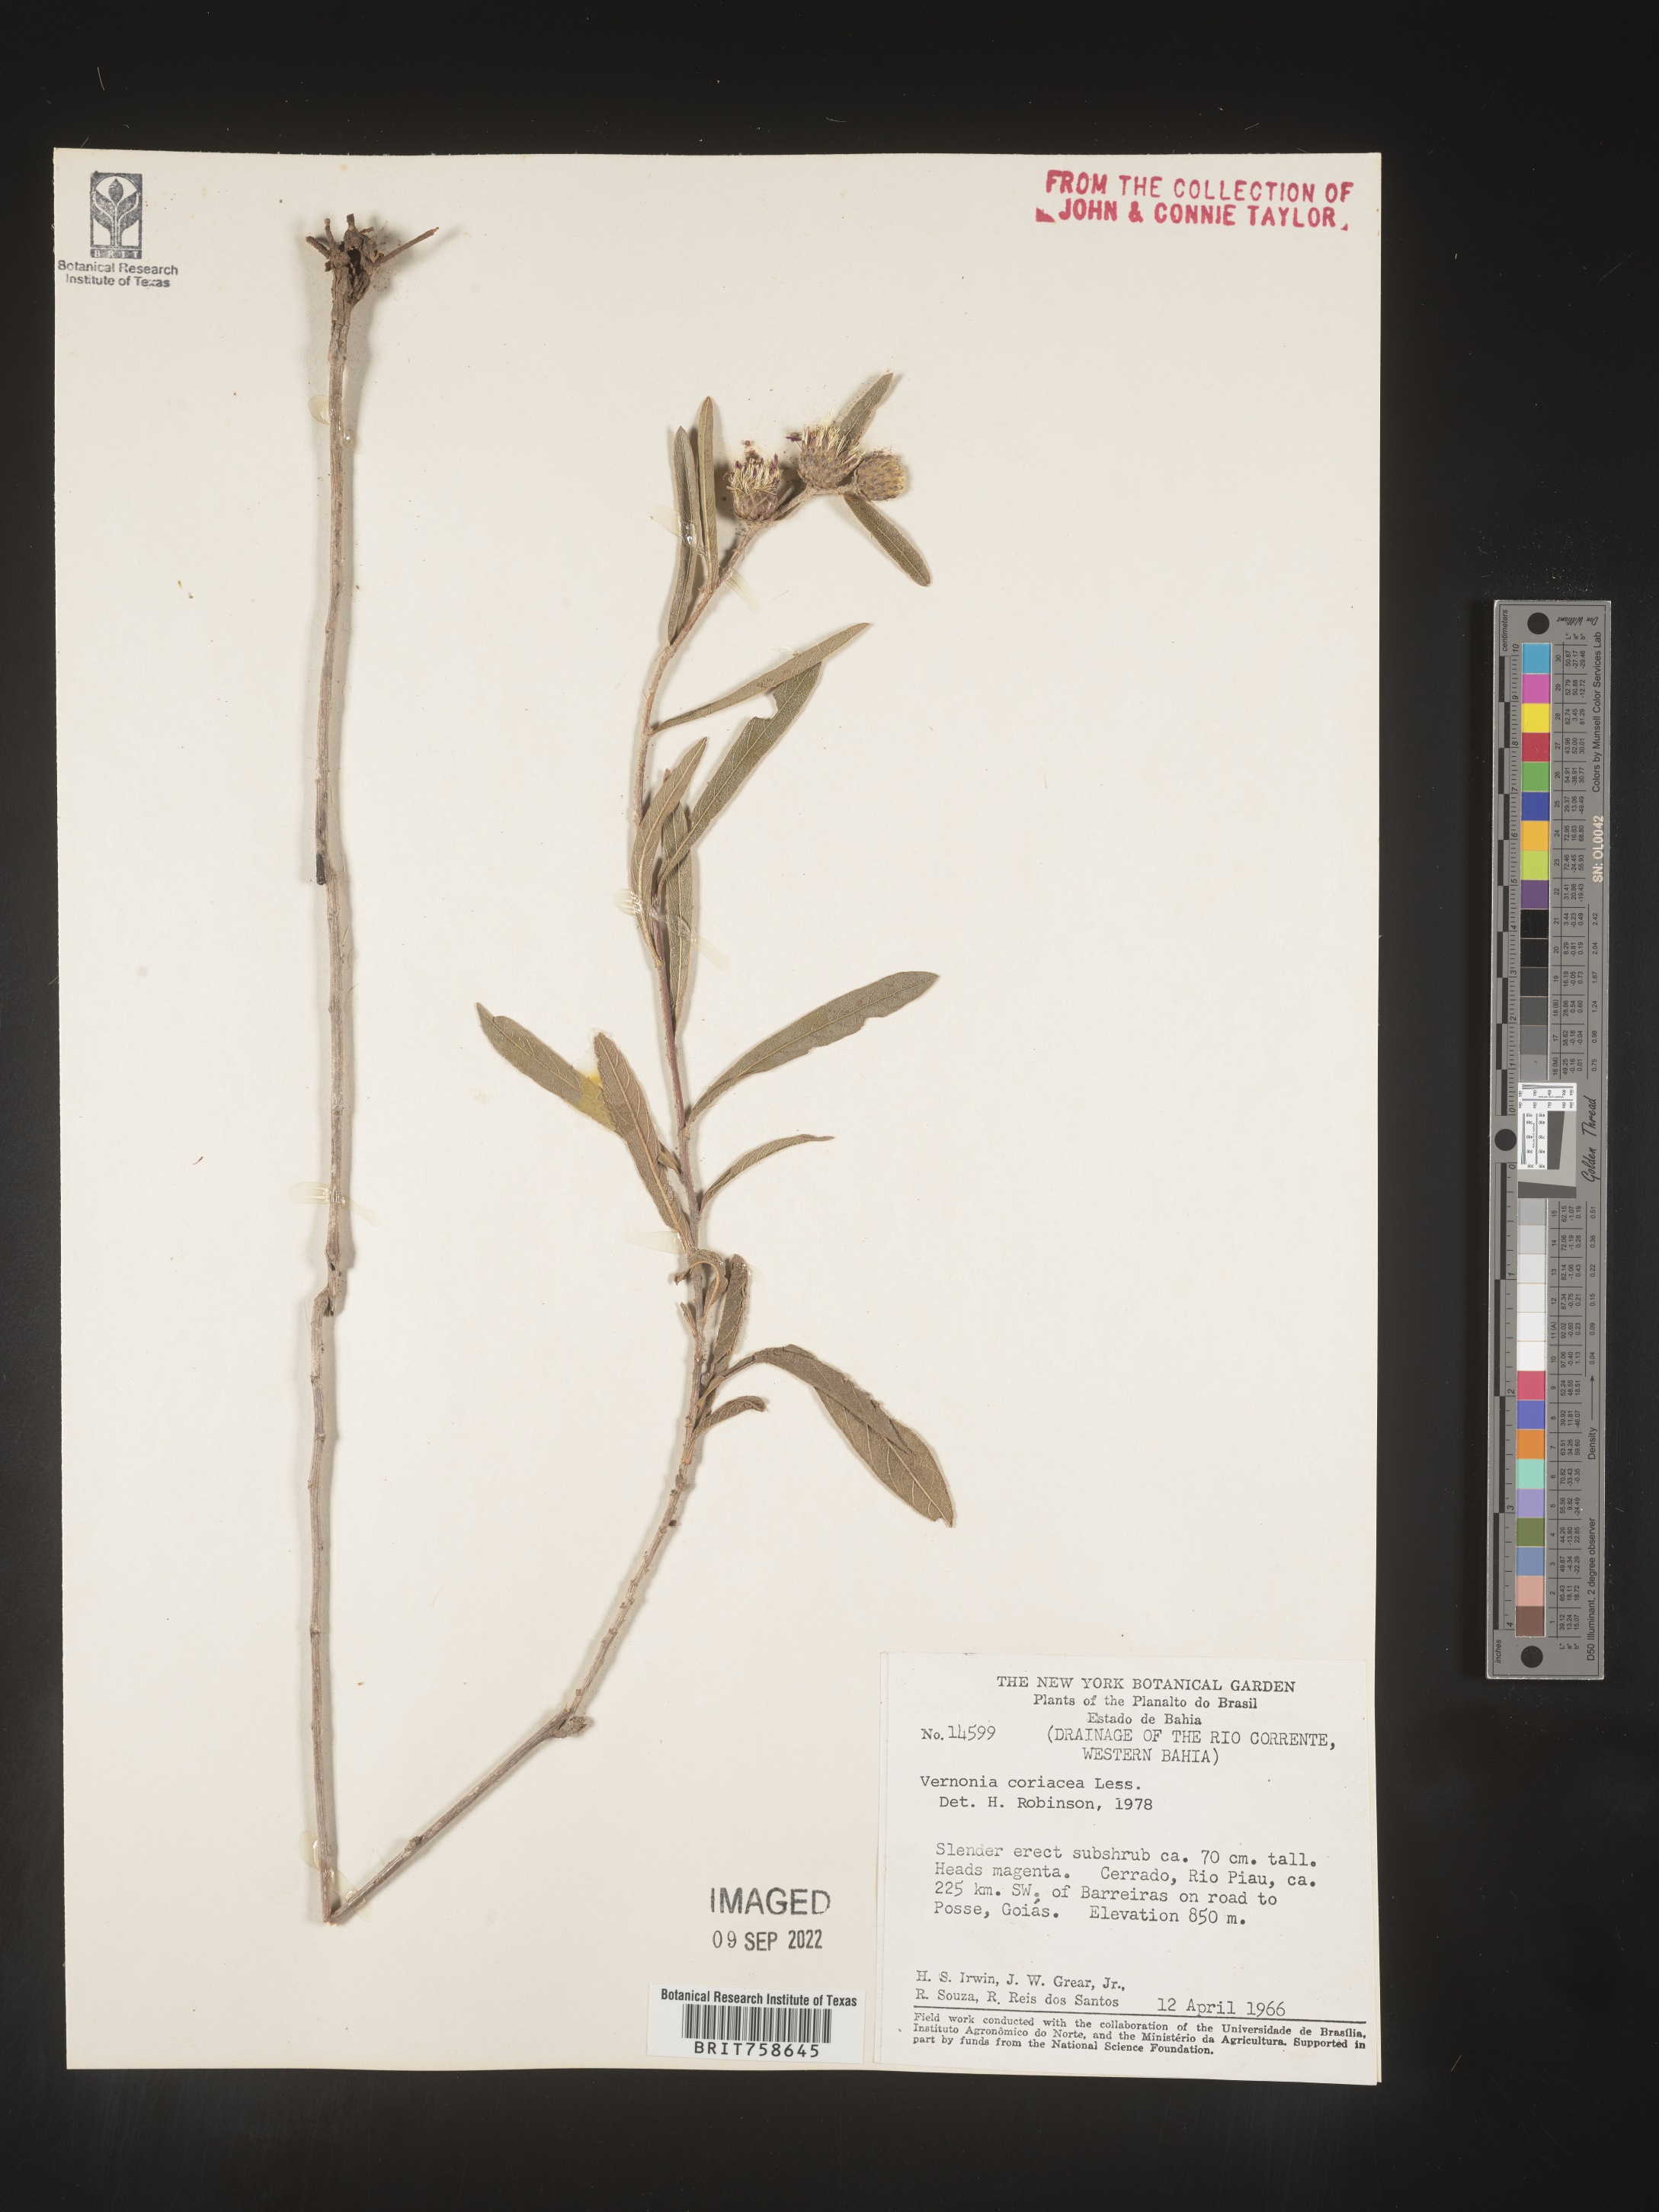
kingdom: Plantae
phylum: Tracheophyta
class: Magnoliopsida
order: Asterales
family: Asteraceae
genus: Vernonia
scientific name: Vernonia
